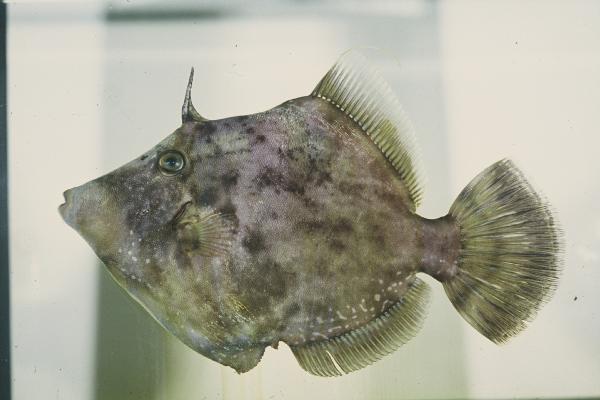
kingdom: Animalia
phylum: Chordata
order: Tetraodontiformes
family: Monacanthidae
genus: Stephanolepis
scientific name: Stephanolepis auratus
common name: Porky
